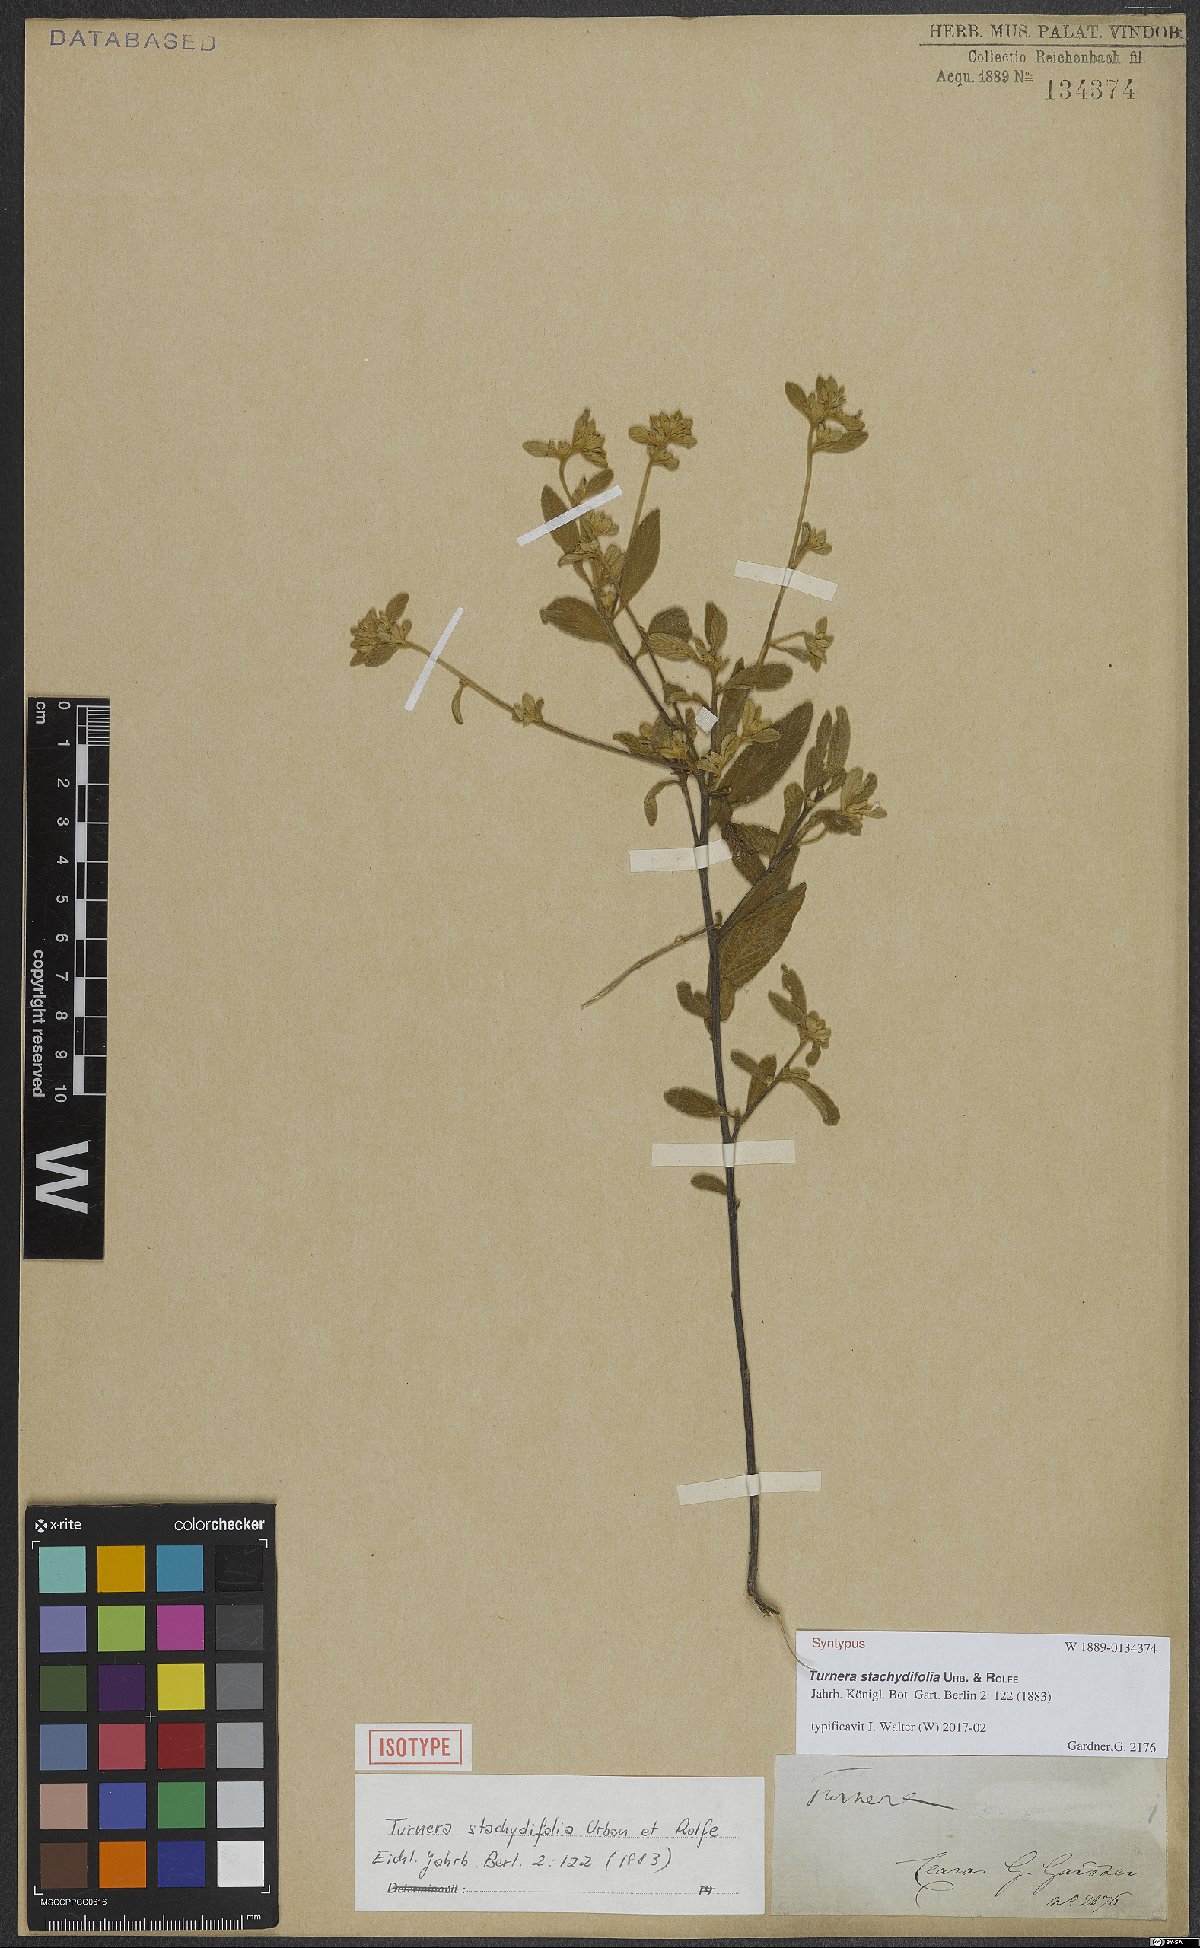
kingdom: Plantae
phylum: Tracheophyta
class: Magnoliopsida
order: Malpighiales
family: Turneraceae
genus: Turnera
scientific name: Turnera stachydifolia
